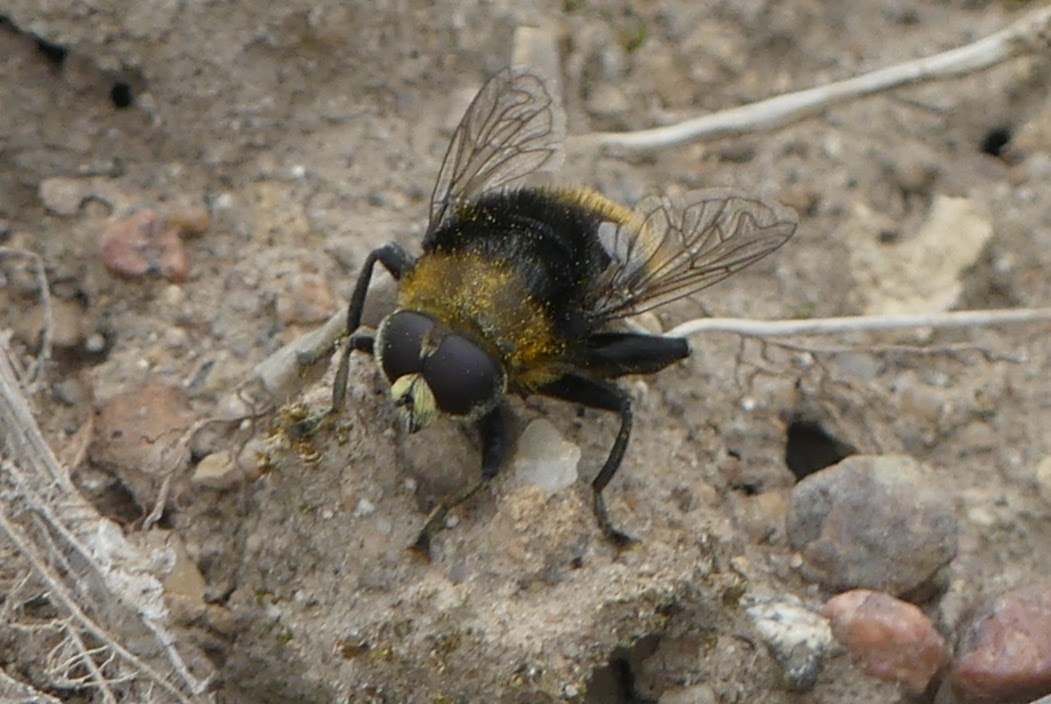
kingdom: Animalia
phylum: Arthropoda
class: Insecta
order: Diptera
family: Syrphidae
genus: Merodon
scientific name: Merodon equestris
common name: Stor narcisflue
